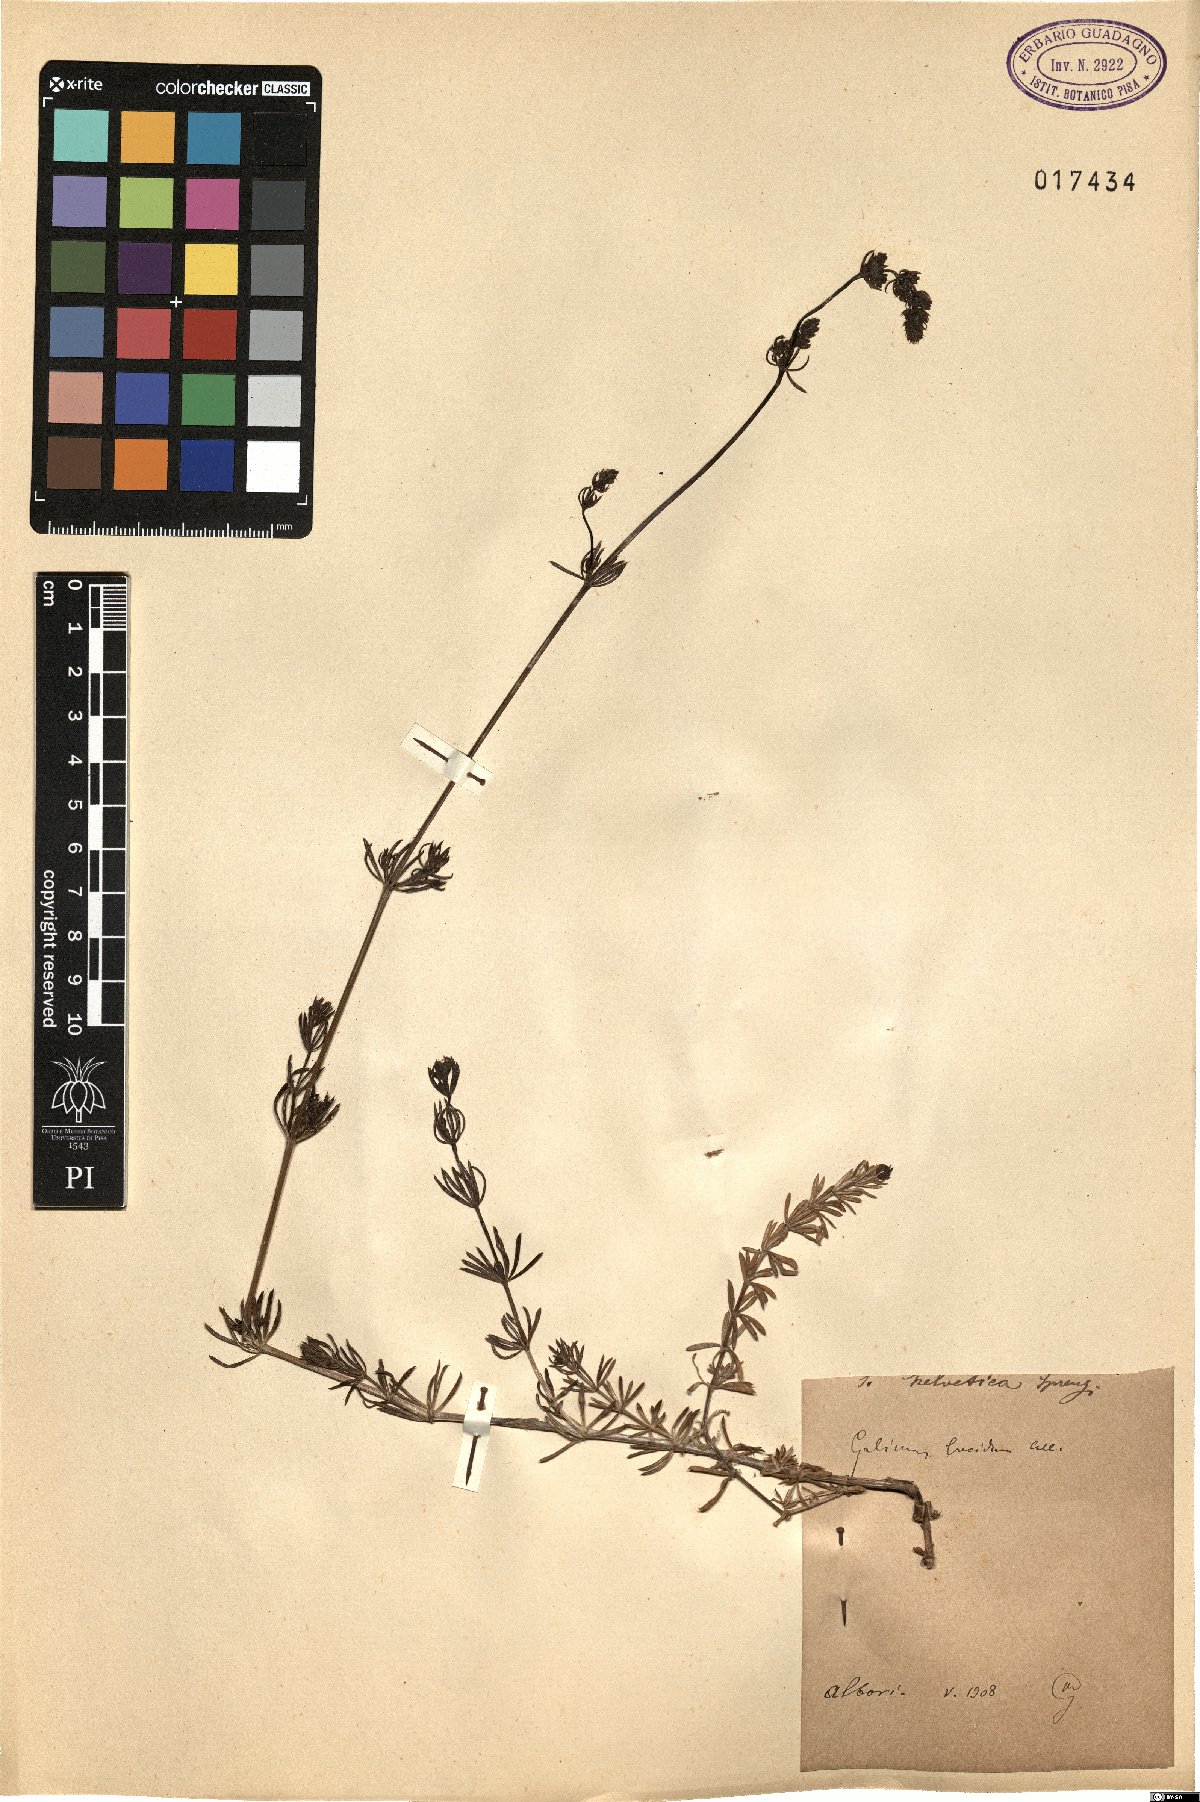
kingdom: Plantae
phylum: Tracheophyta
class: Magnoliopsida
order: Gentianales
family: Rubiaceae
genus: Galium
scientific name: Galium lucidum
